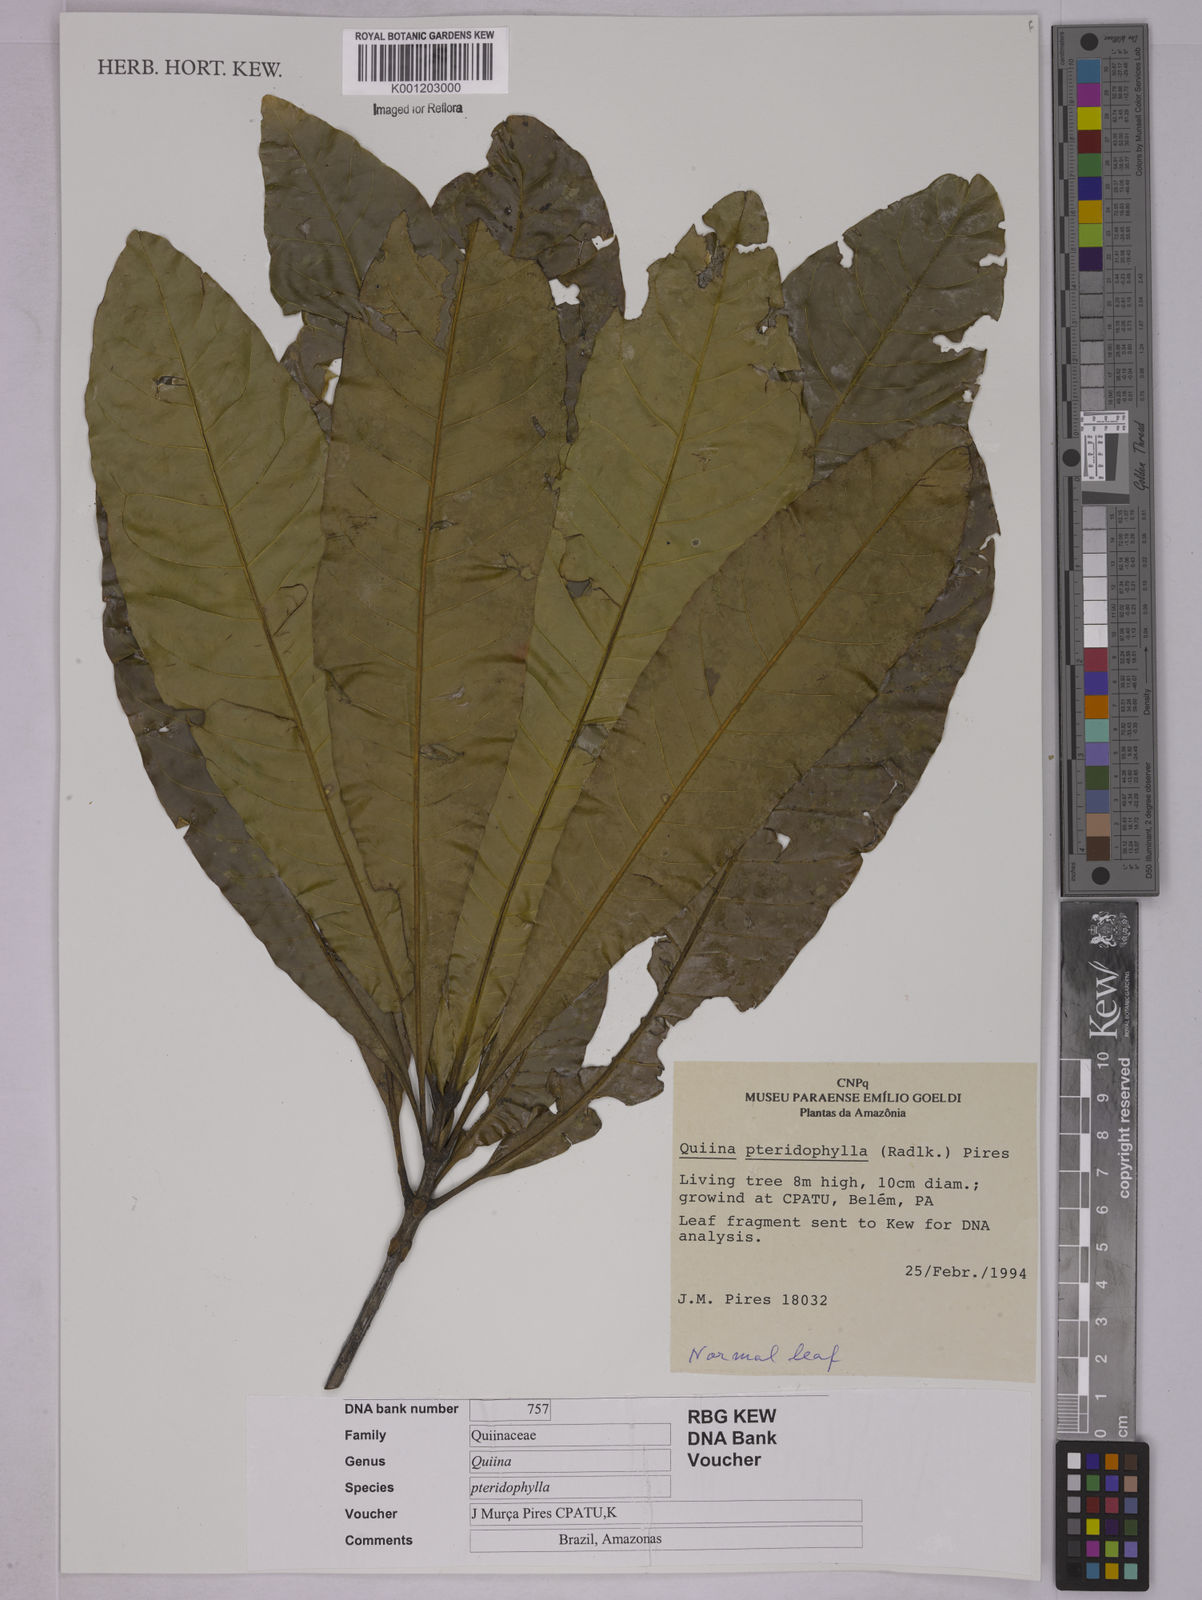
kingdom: Plantae
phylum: Tracheophyta
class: Magnoliopsida
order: Malpighiales
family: Quiinaceae
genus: Quiina
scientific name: Quiina pteridophylla
